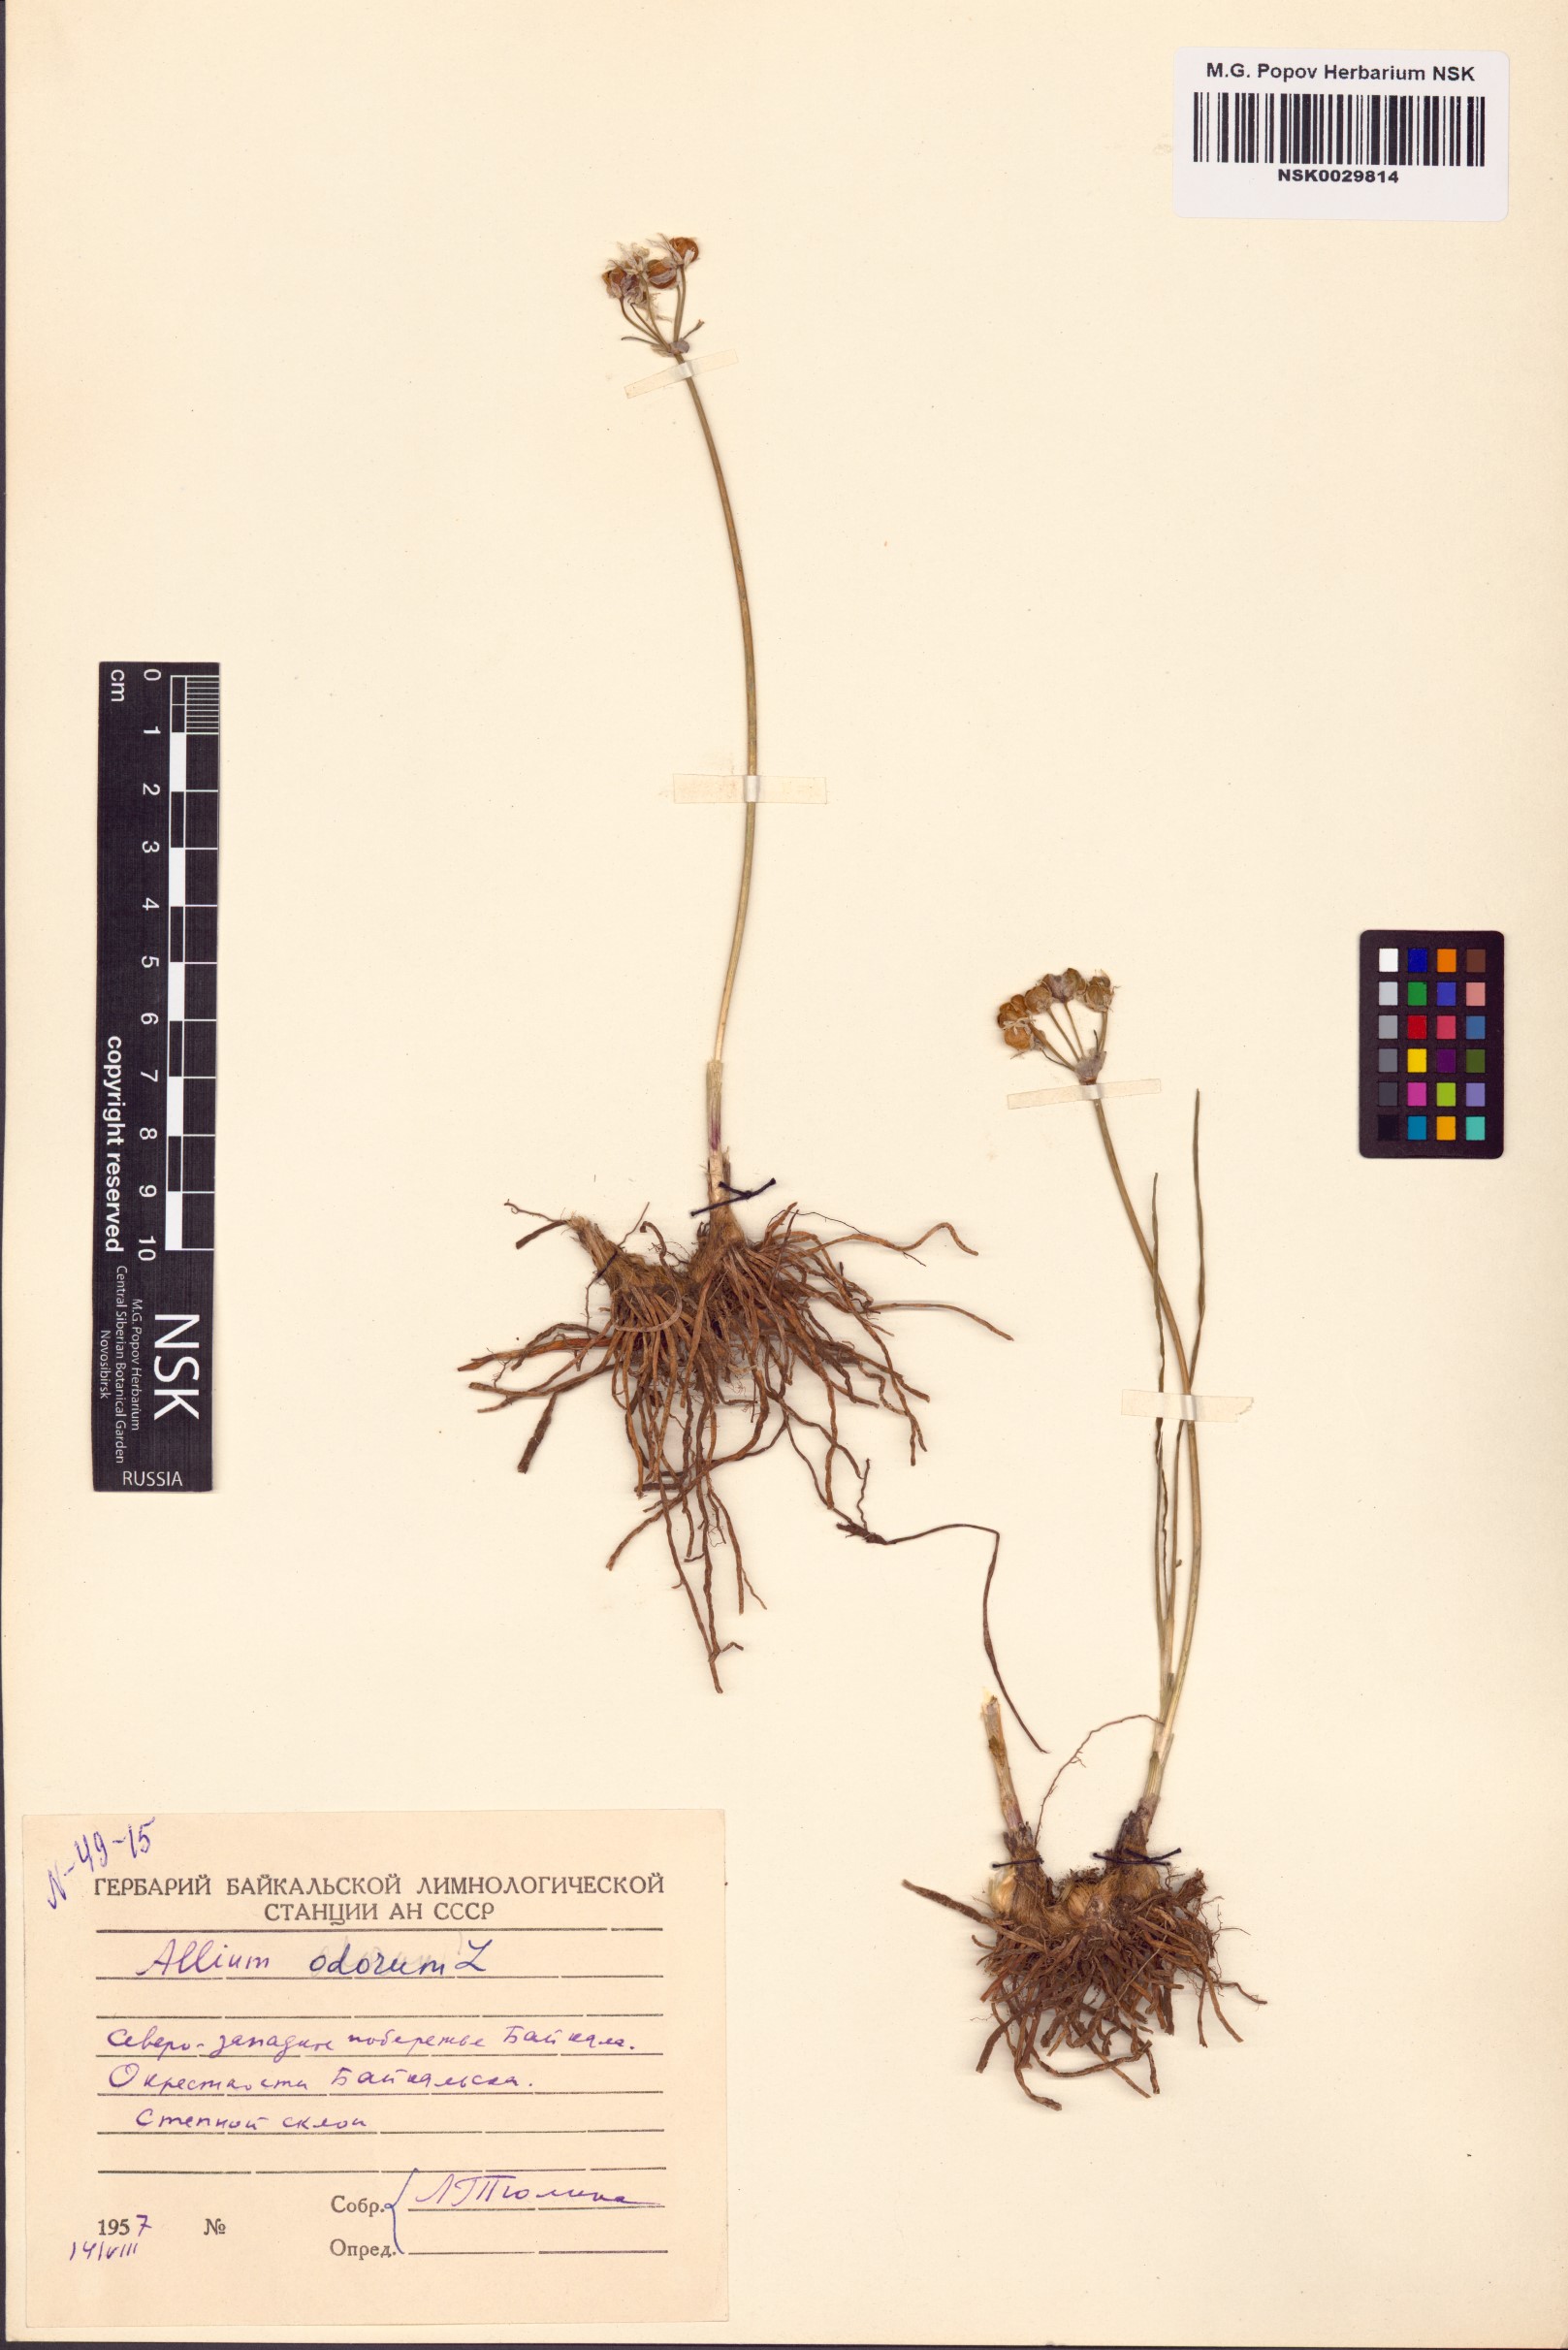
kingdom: Plantae
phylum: Tracheophyta
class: Liliopsida
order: Asparagales
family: Amaryllidaceae
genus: Allium
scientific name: Allium ramosum
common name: Fragrant garlic
